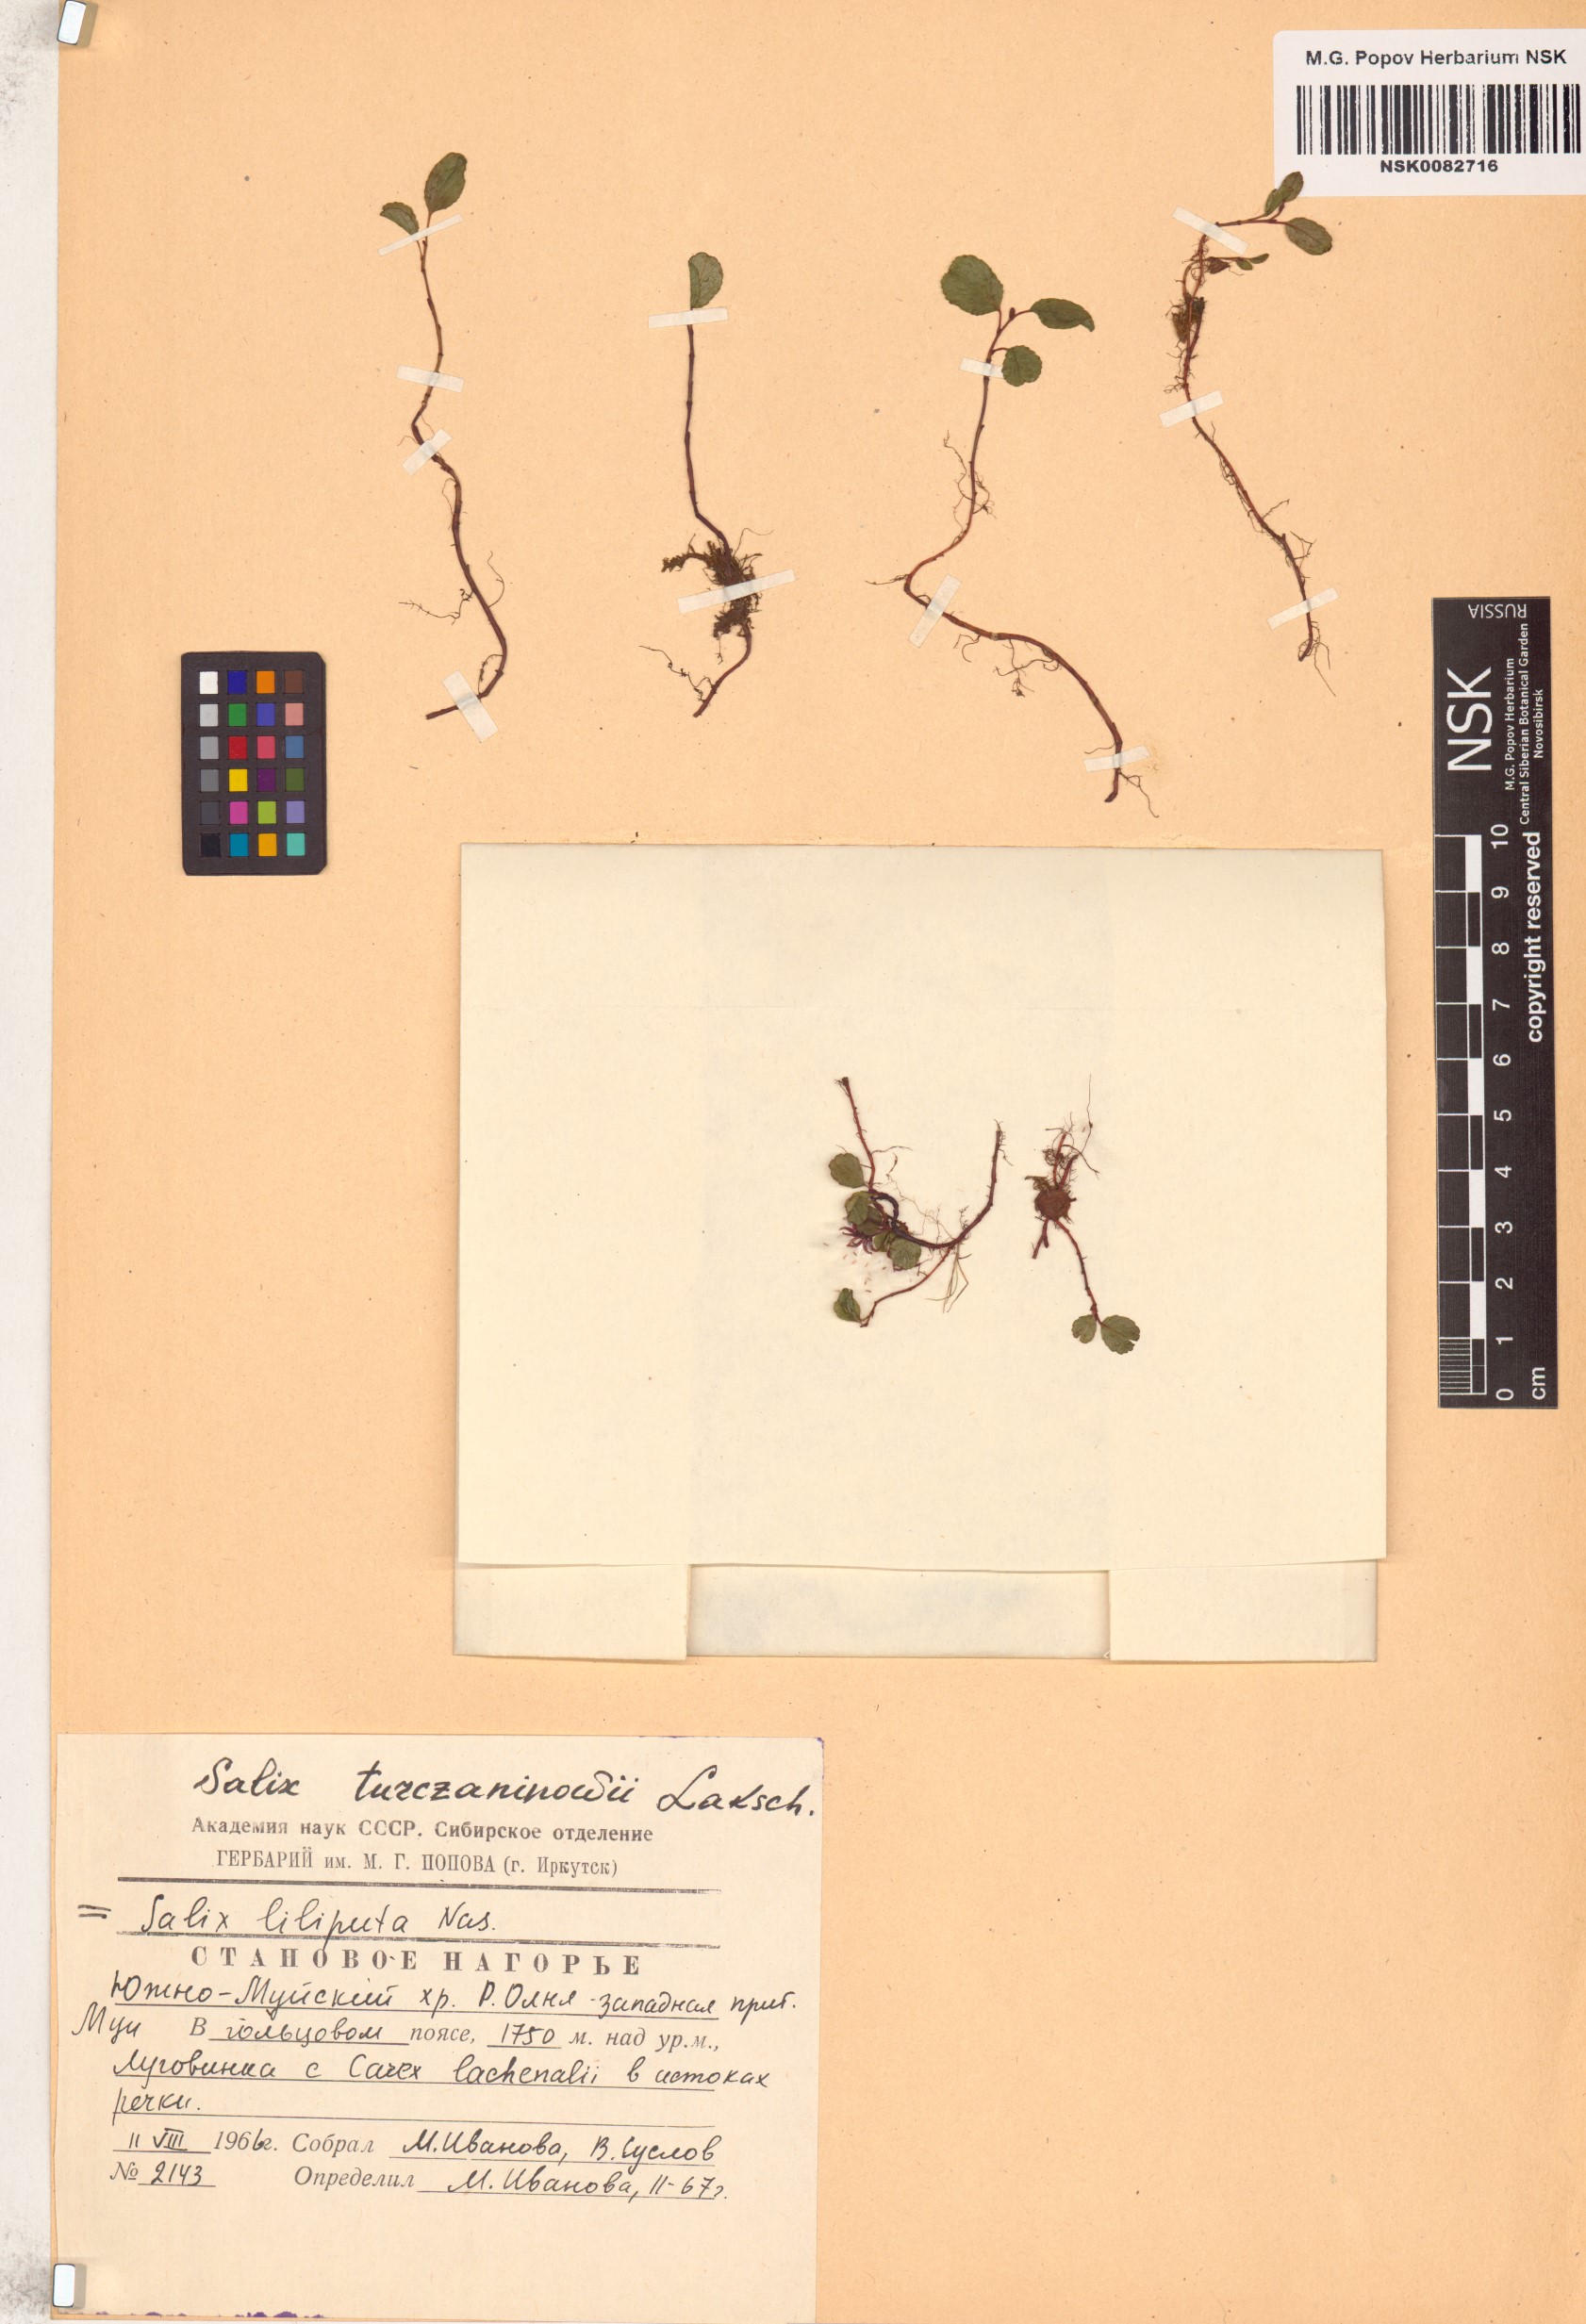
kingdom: Plantae
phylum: Tracheophyta
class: Magnoliopsida
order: Malpighiales
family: Salicaceae
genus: Salix
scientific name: Salix turczaninowii
